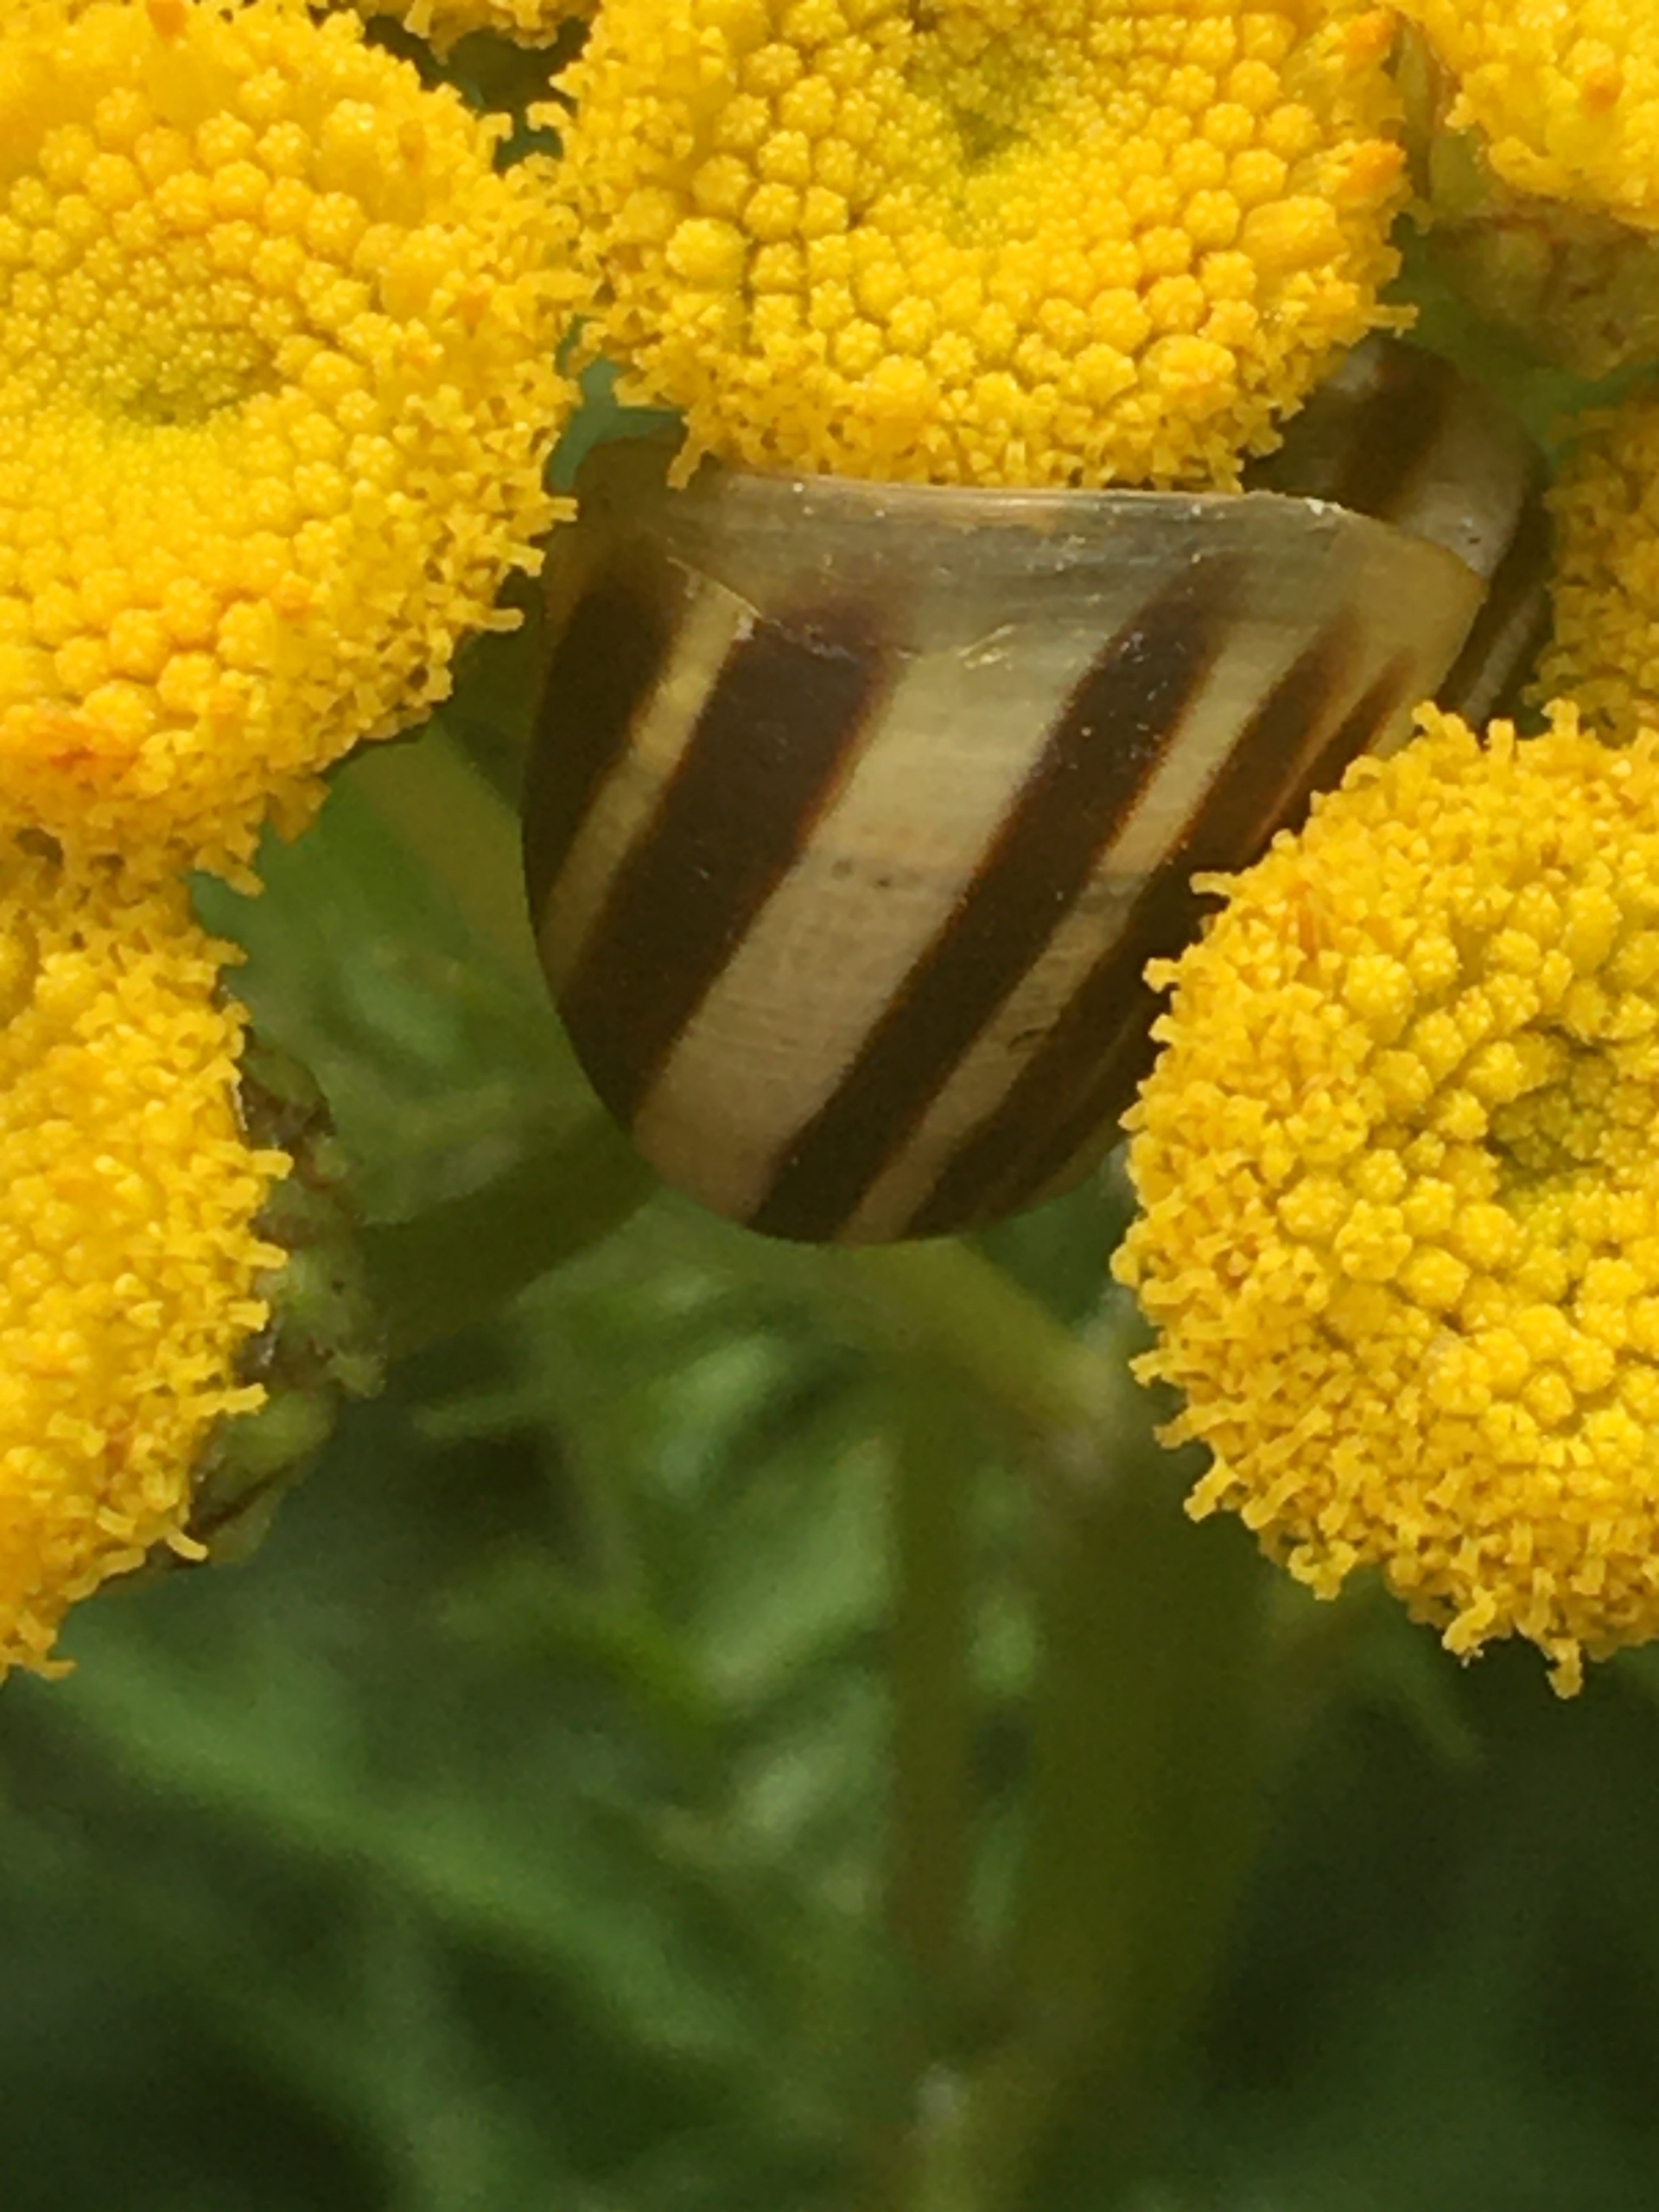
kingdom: Animalia
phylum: Mollusca
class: Gastropoda
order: Stylommatophora
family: Helicidae
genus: Cepaea
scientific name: Cepaea hortensis
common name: Havesnegl
